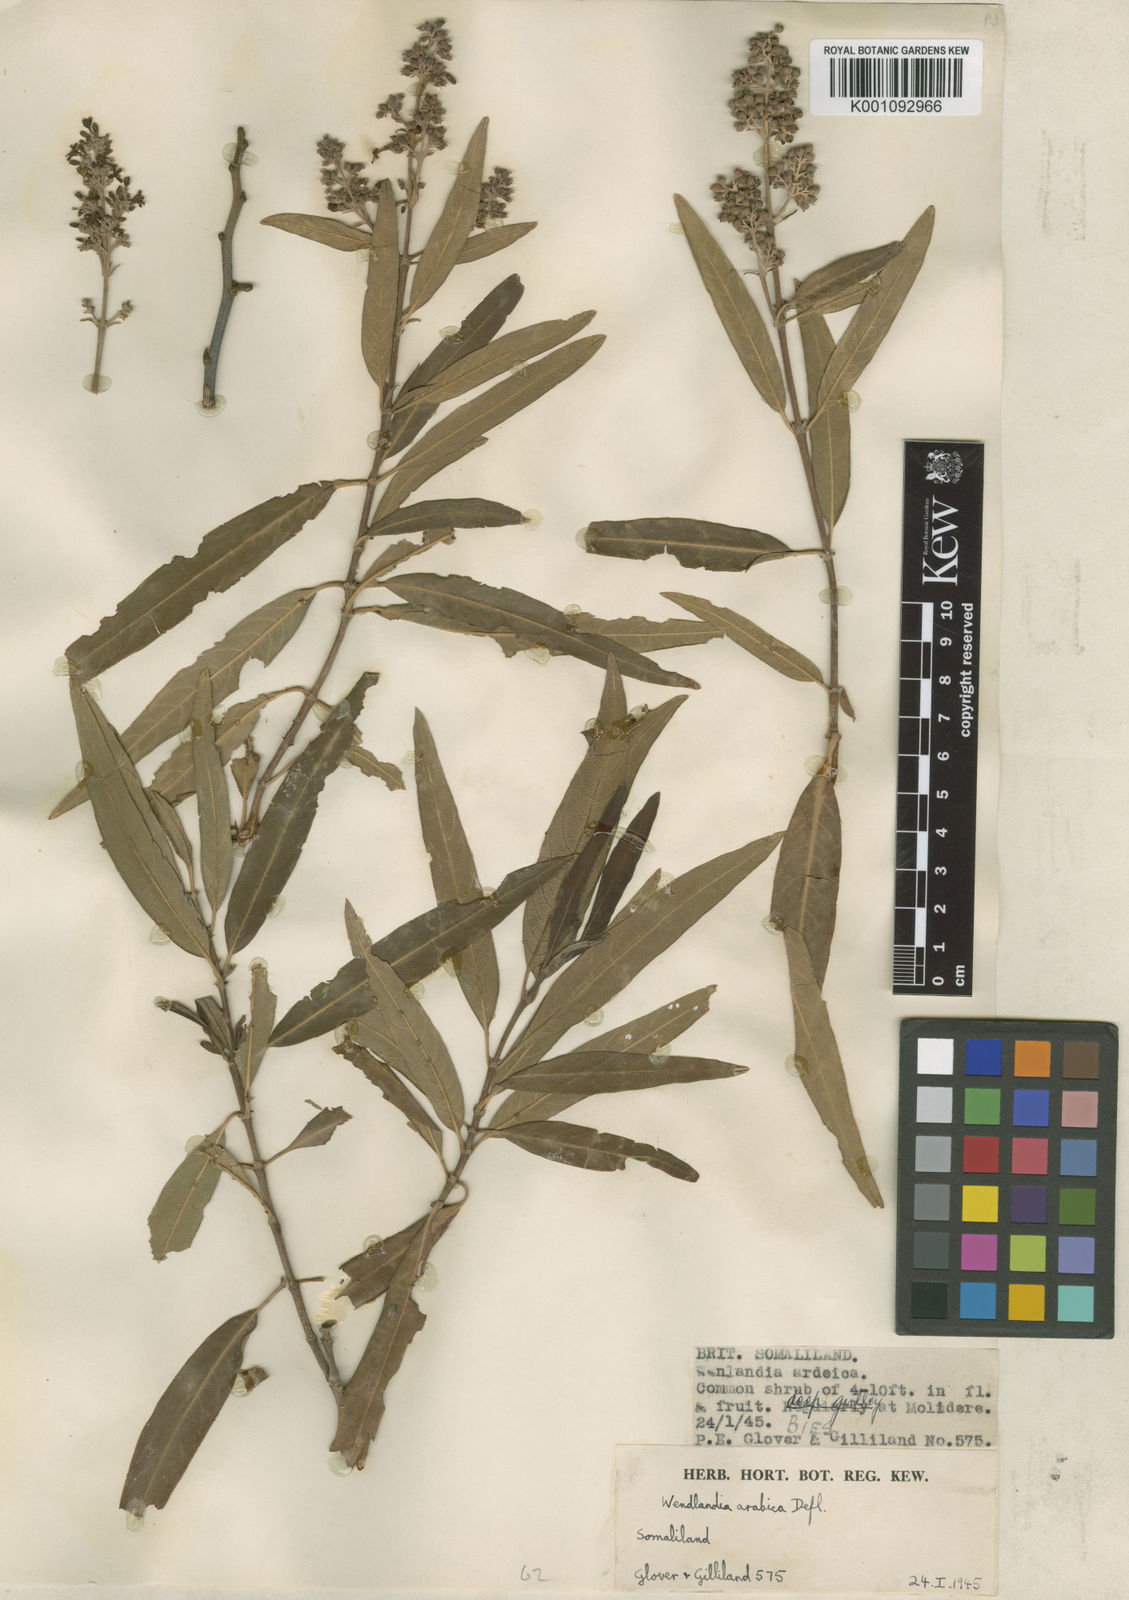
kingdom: Plantae
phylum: Tracheophyta
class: Magnoliopsida
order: Gentianales
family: Rubiaceae
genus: Wendlandia
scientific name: Wendlandia arabica
